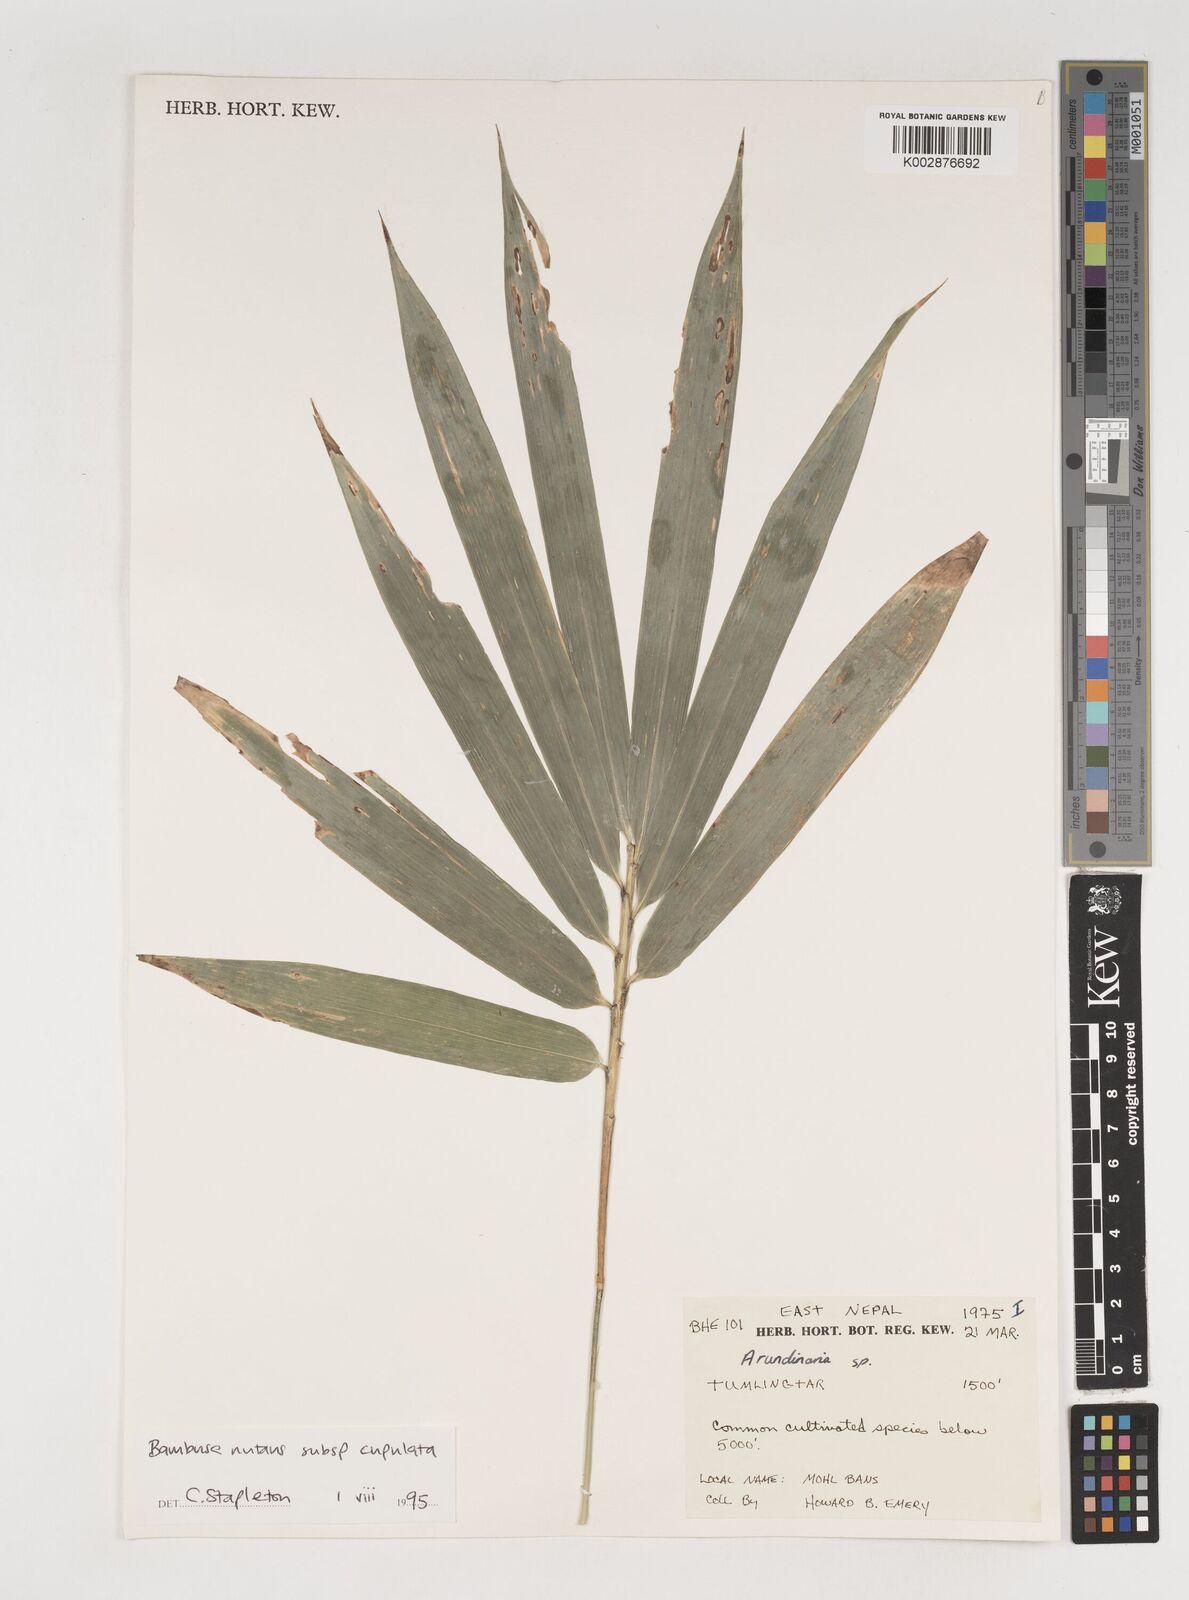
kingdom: Plantae
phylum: Tracheophyta
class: Liliopsida
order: Poales
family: Poaceae
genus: Bambusa
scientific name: Bambusa
